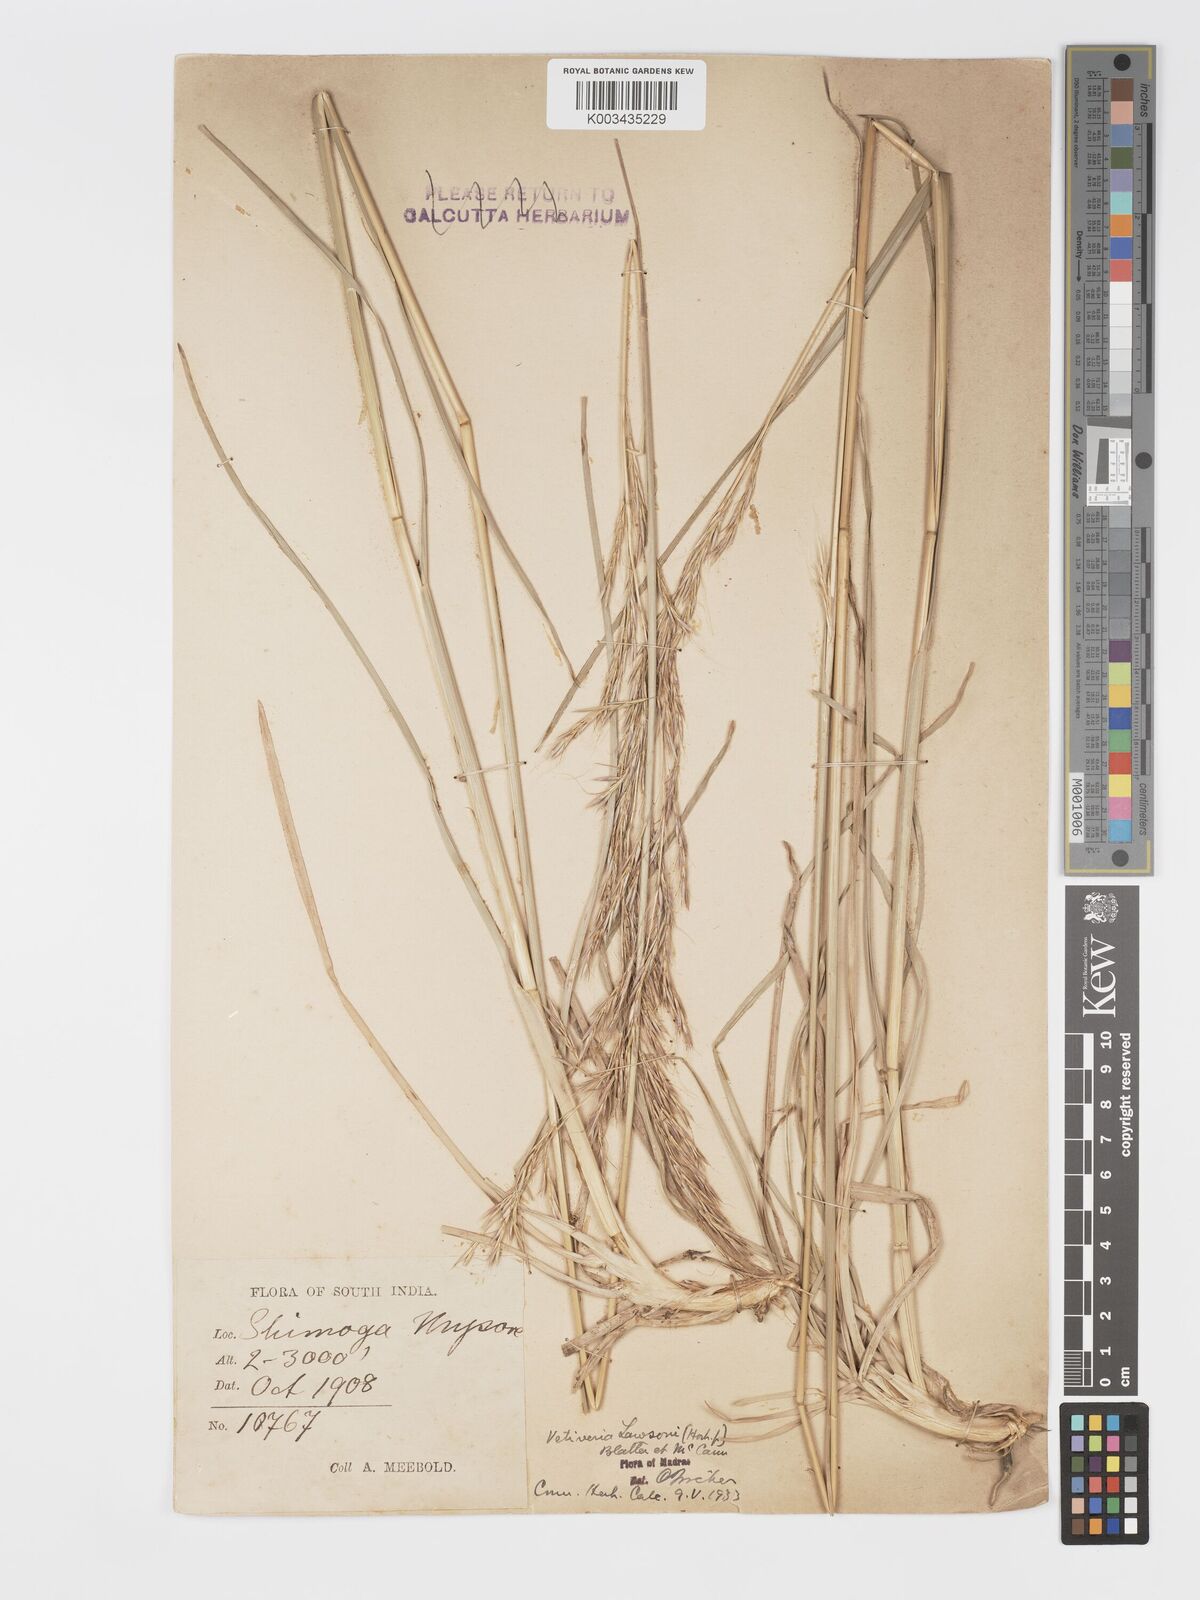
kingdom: Plantae
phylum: Tracheophyta
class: Liliopsida
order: Poales
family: Poaceae
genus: Chrysopogon
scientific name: Chrysopogon lawsonii
